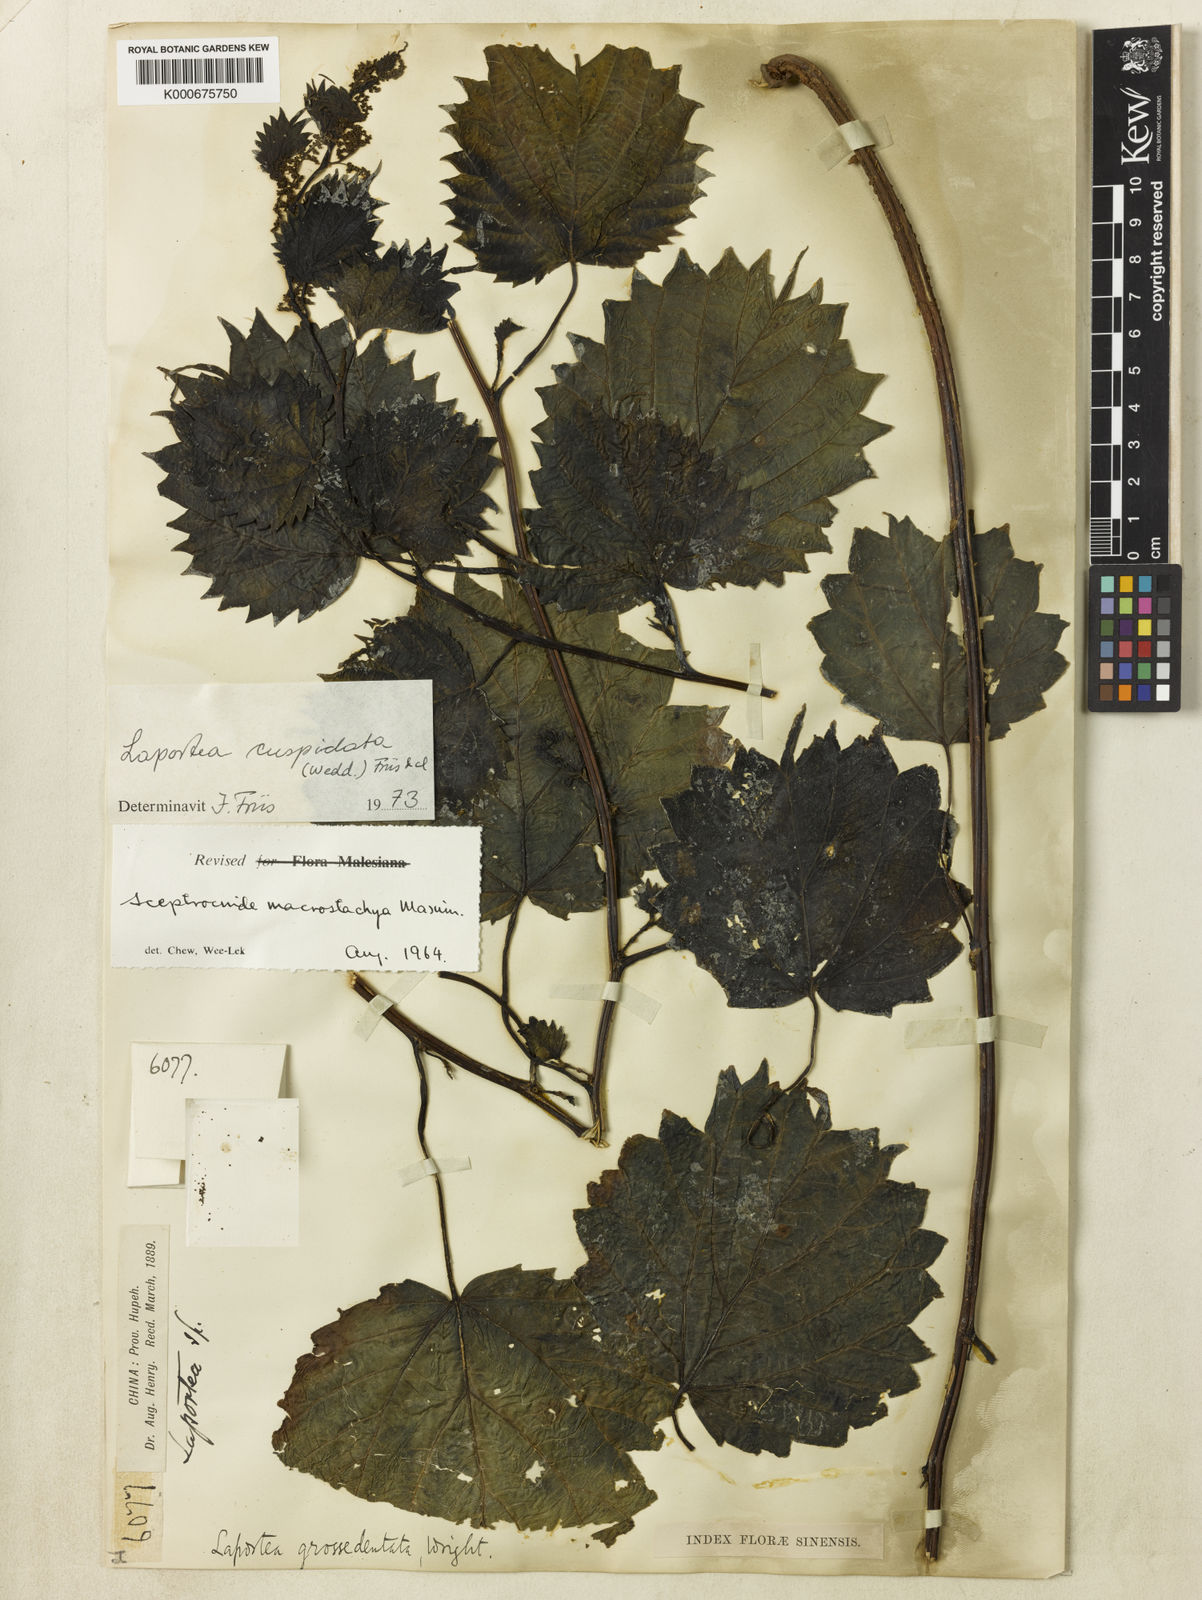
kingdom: Plantae
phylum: Tracheophyta
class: Magnoliopsida
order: Rosales
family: Urticaceae
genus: Laportea
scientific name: Laportea cuspidata
